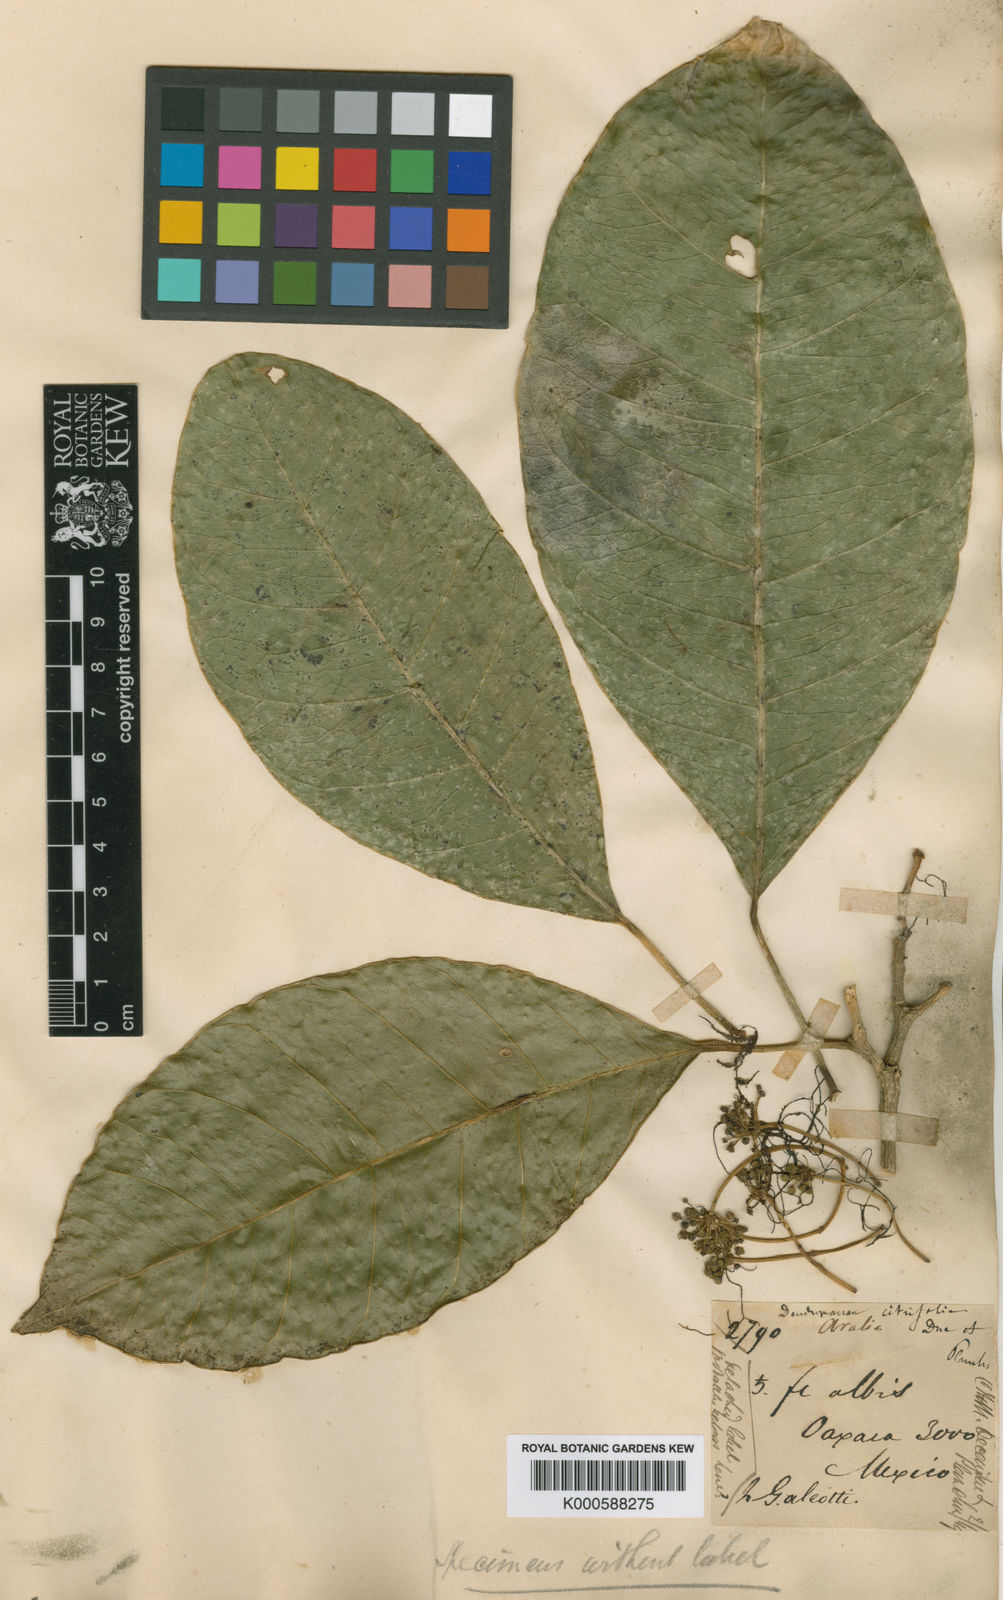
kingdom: Plantae
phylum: Tracheophyta
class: Magnoliopsida
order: Apiales
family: Araliaceae
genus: Dendropanax
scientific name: Dendropanax
